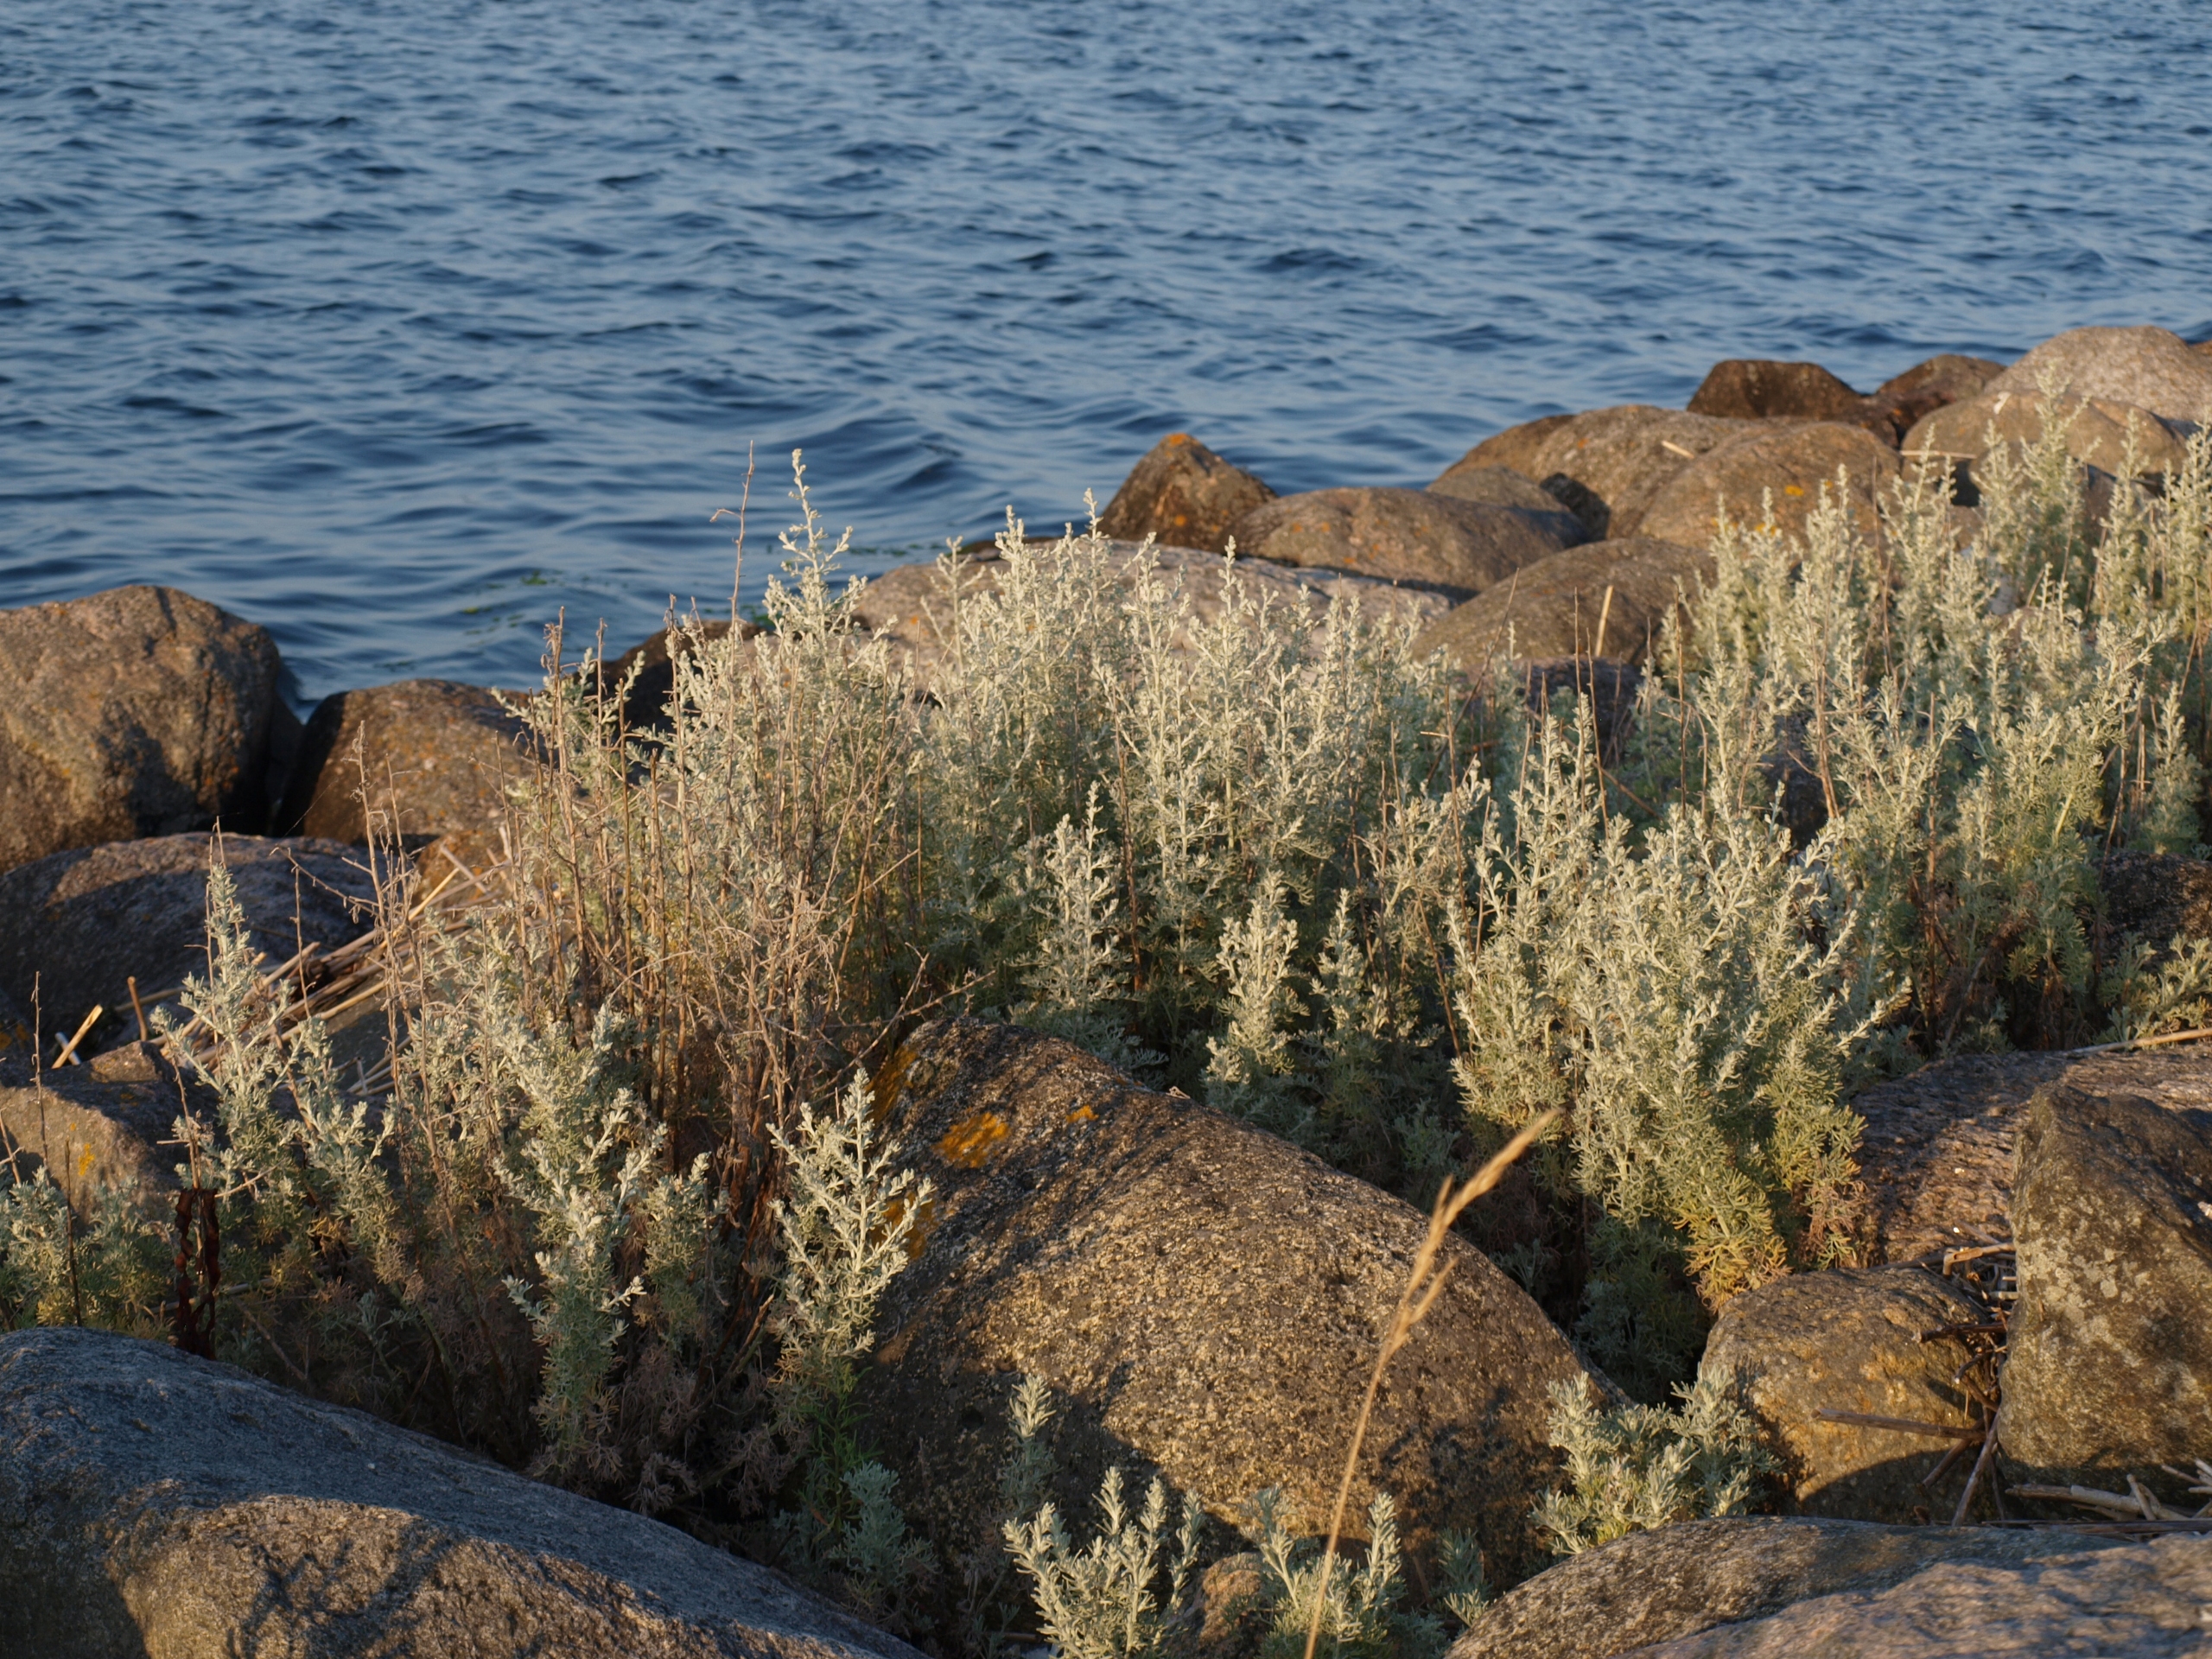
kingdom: Plantae
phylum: Tracheophyta
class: Magnoliopsida
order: Asterales
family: Asteraceae
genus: Artemisia
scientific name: Artemisia maritima
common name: Strandmalurt
